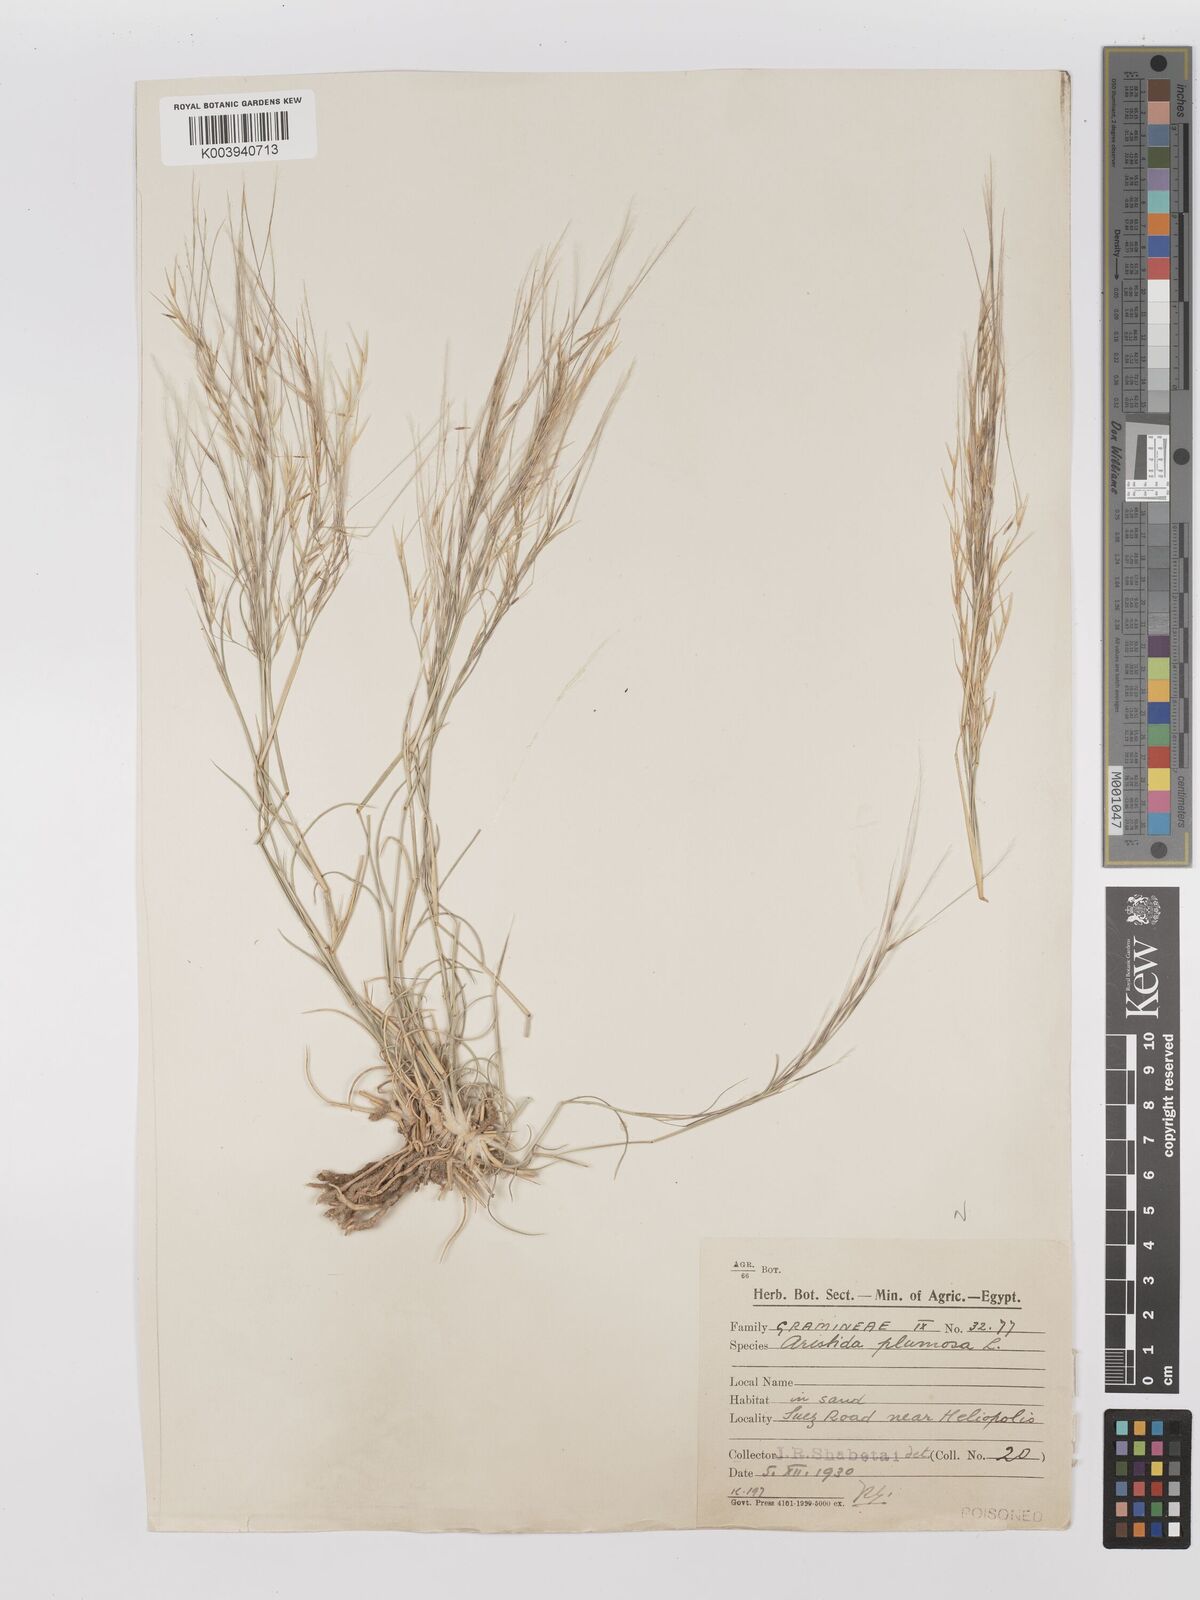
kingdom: Plantae
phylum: Tracheophyta
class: Liliopsida
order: Poales
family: Poaceae
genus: Stipagrostis
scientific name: Stipagrostis plumosa
